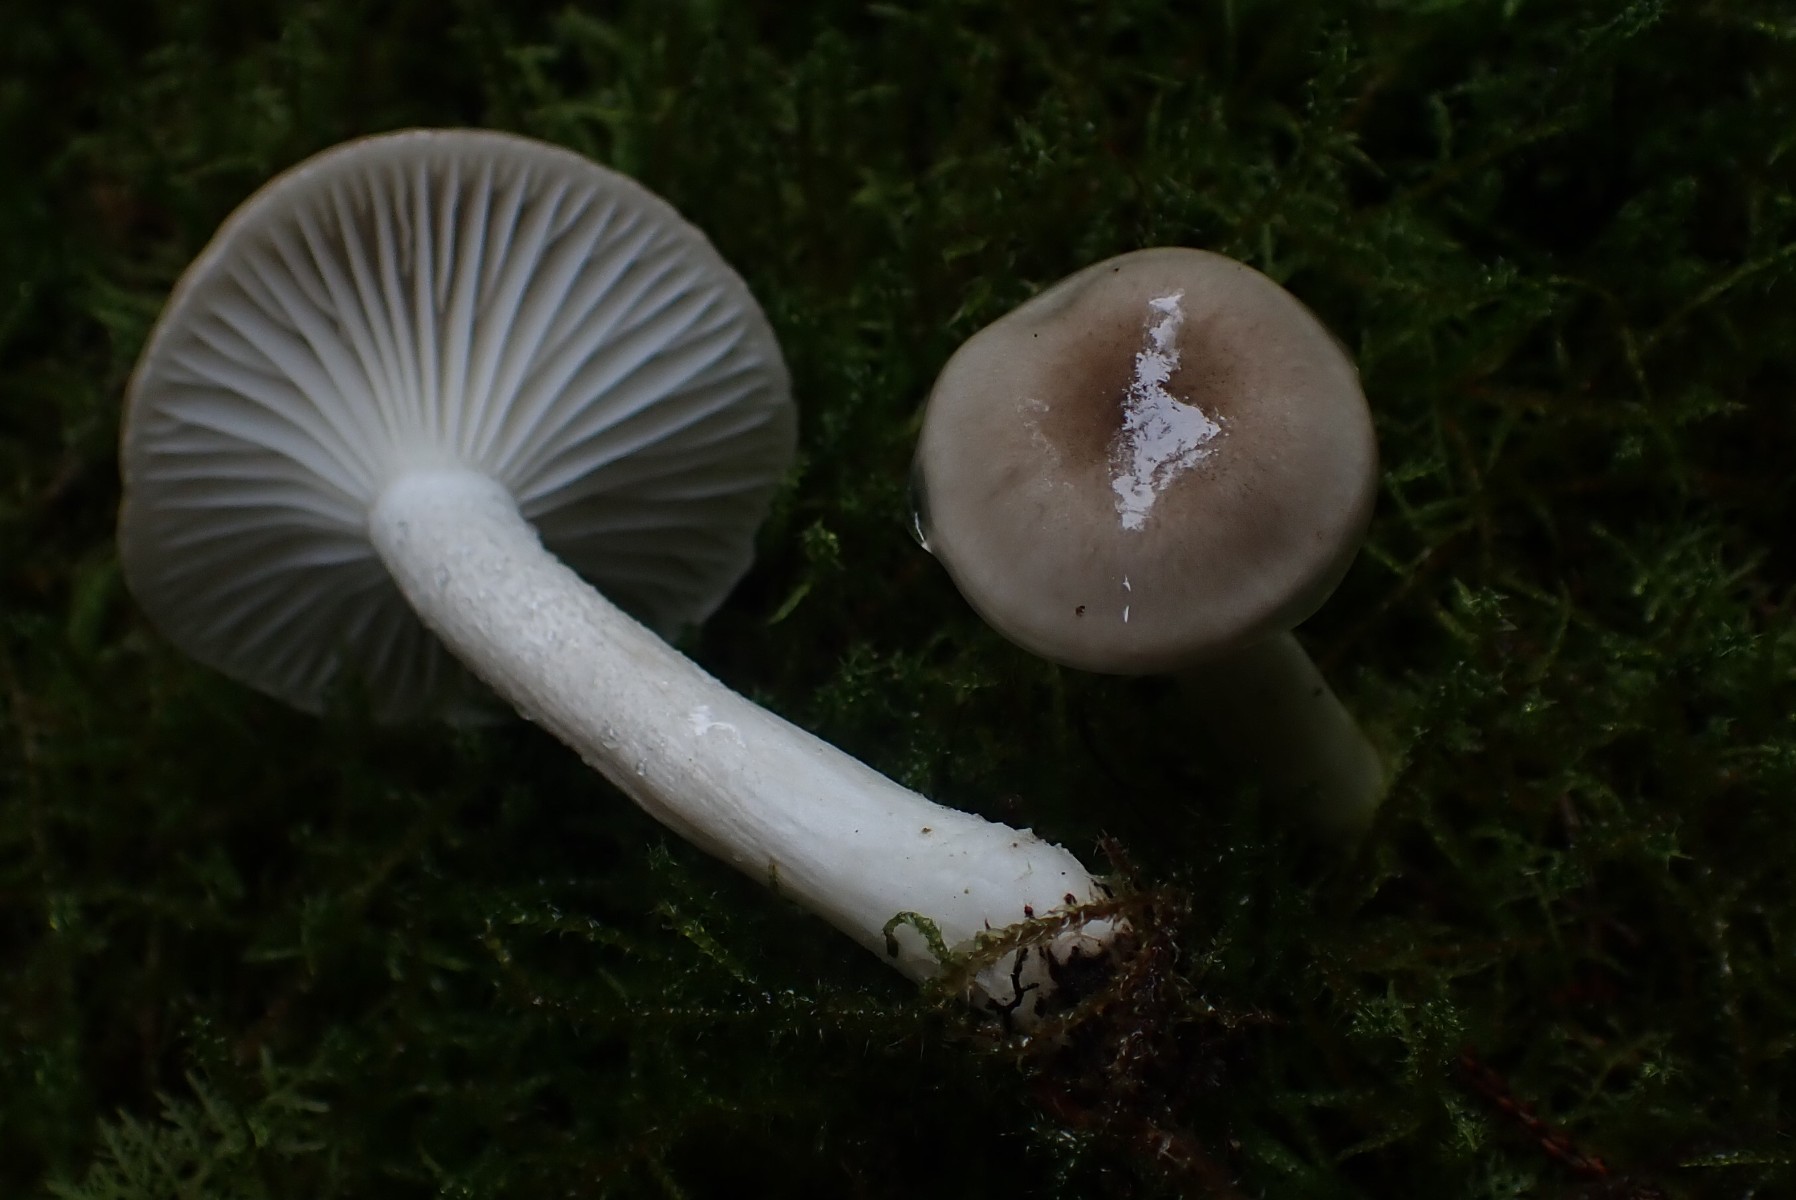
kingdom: Fungi
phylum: Basidiomycota
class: Agaricomycetes
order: Agaricales
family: Hygrophoraceae
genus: Hygrophorus
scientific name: Hygrophorus agathosmus
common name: vellugtende sneglehat
